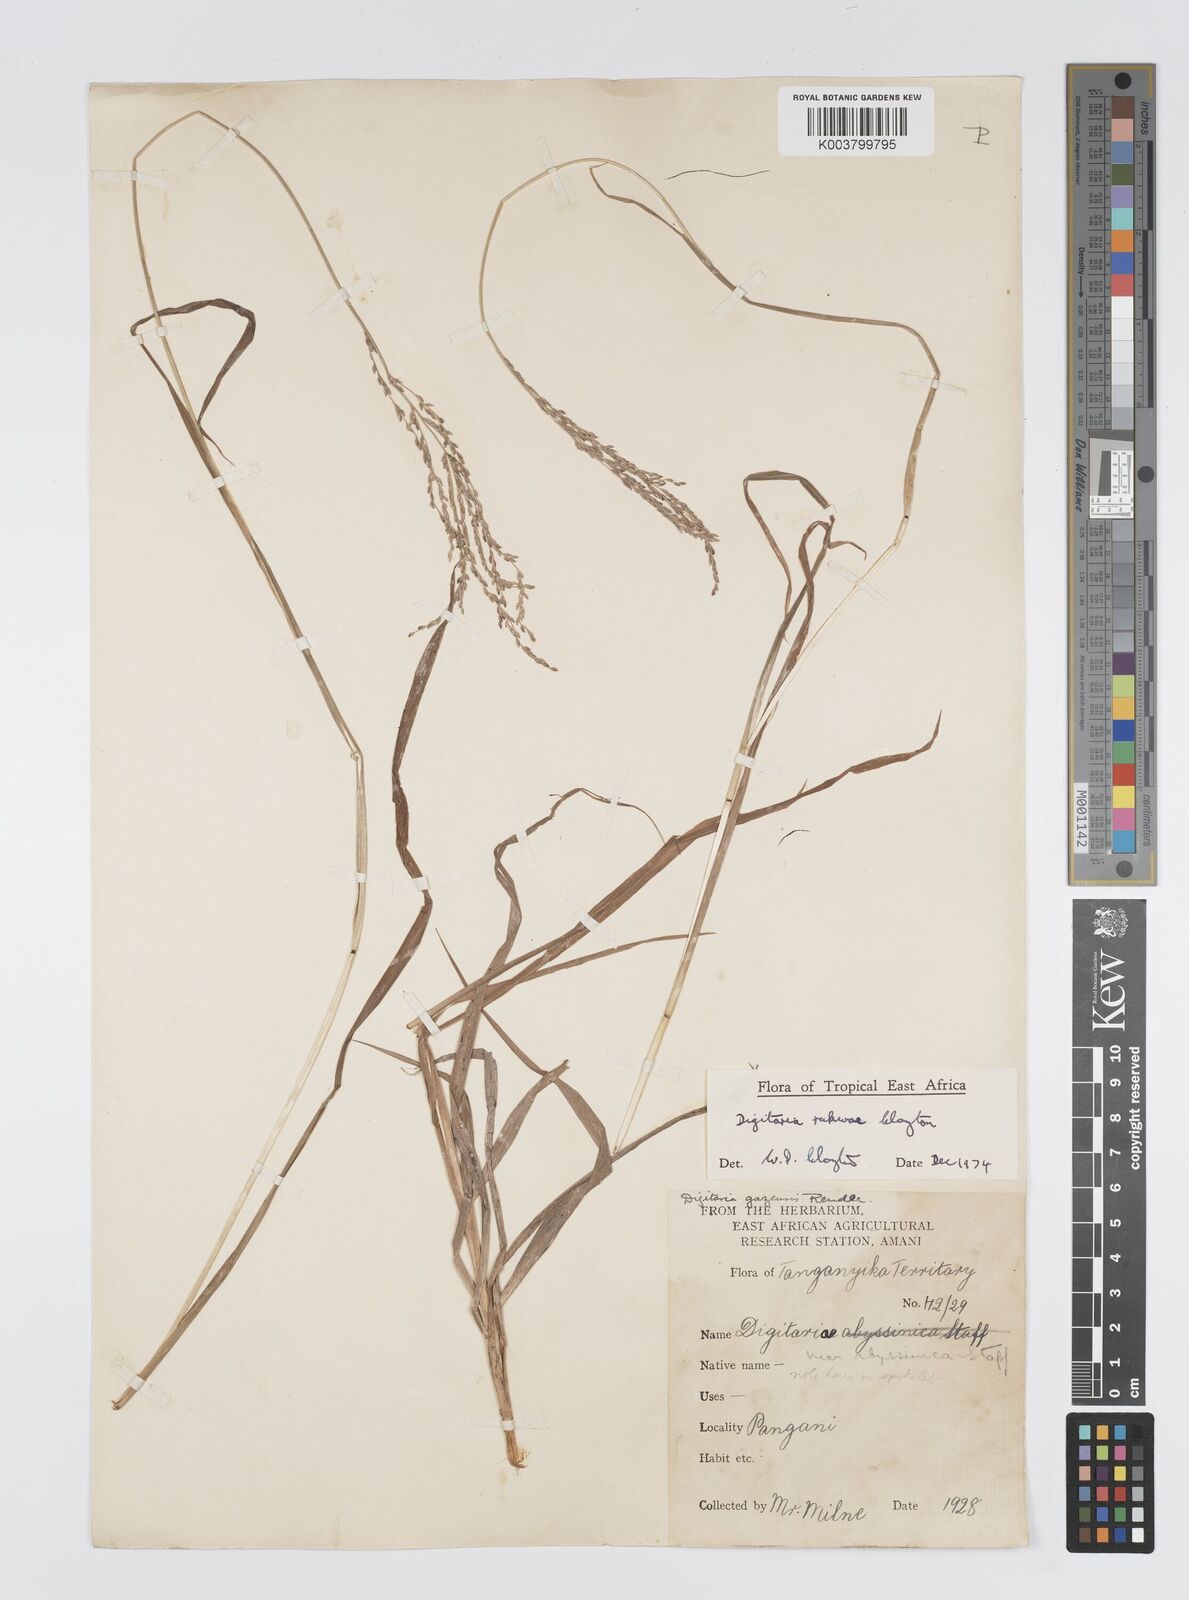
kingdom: Plantae
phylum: Tracheophyta
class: Liliopsida
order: Poales
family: Poaceae
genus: Digitaria
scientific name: Digitaria rukwae
